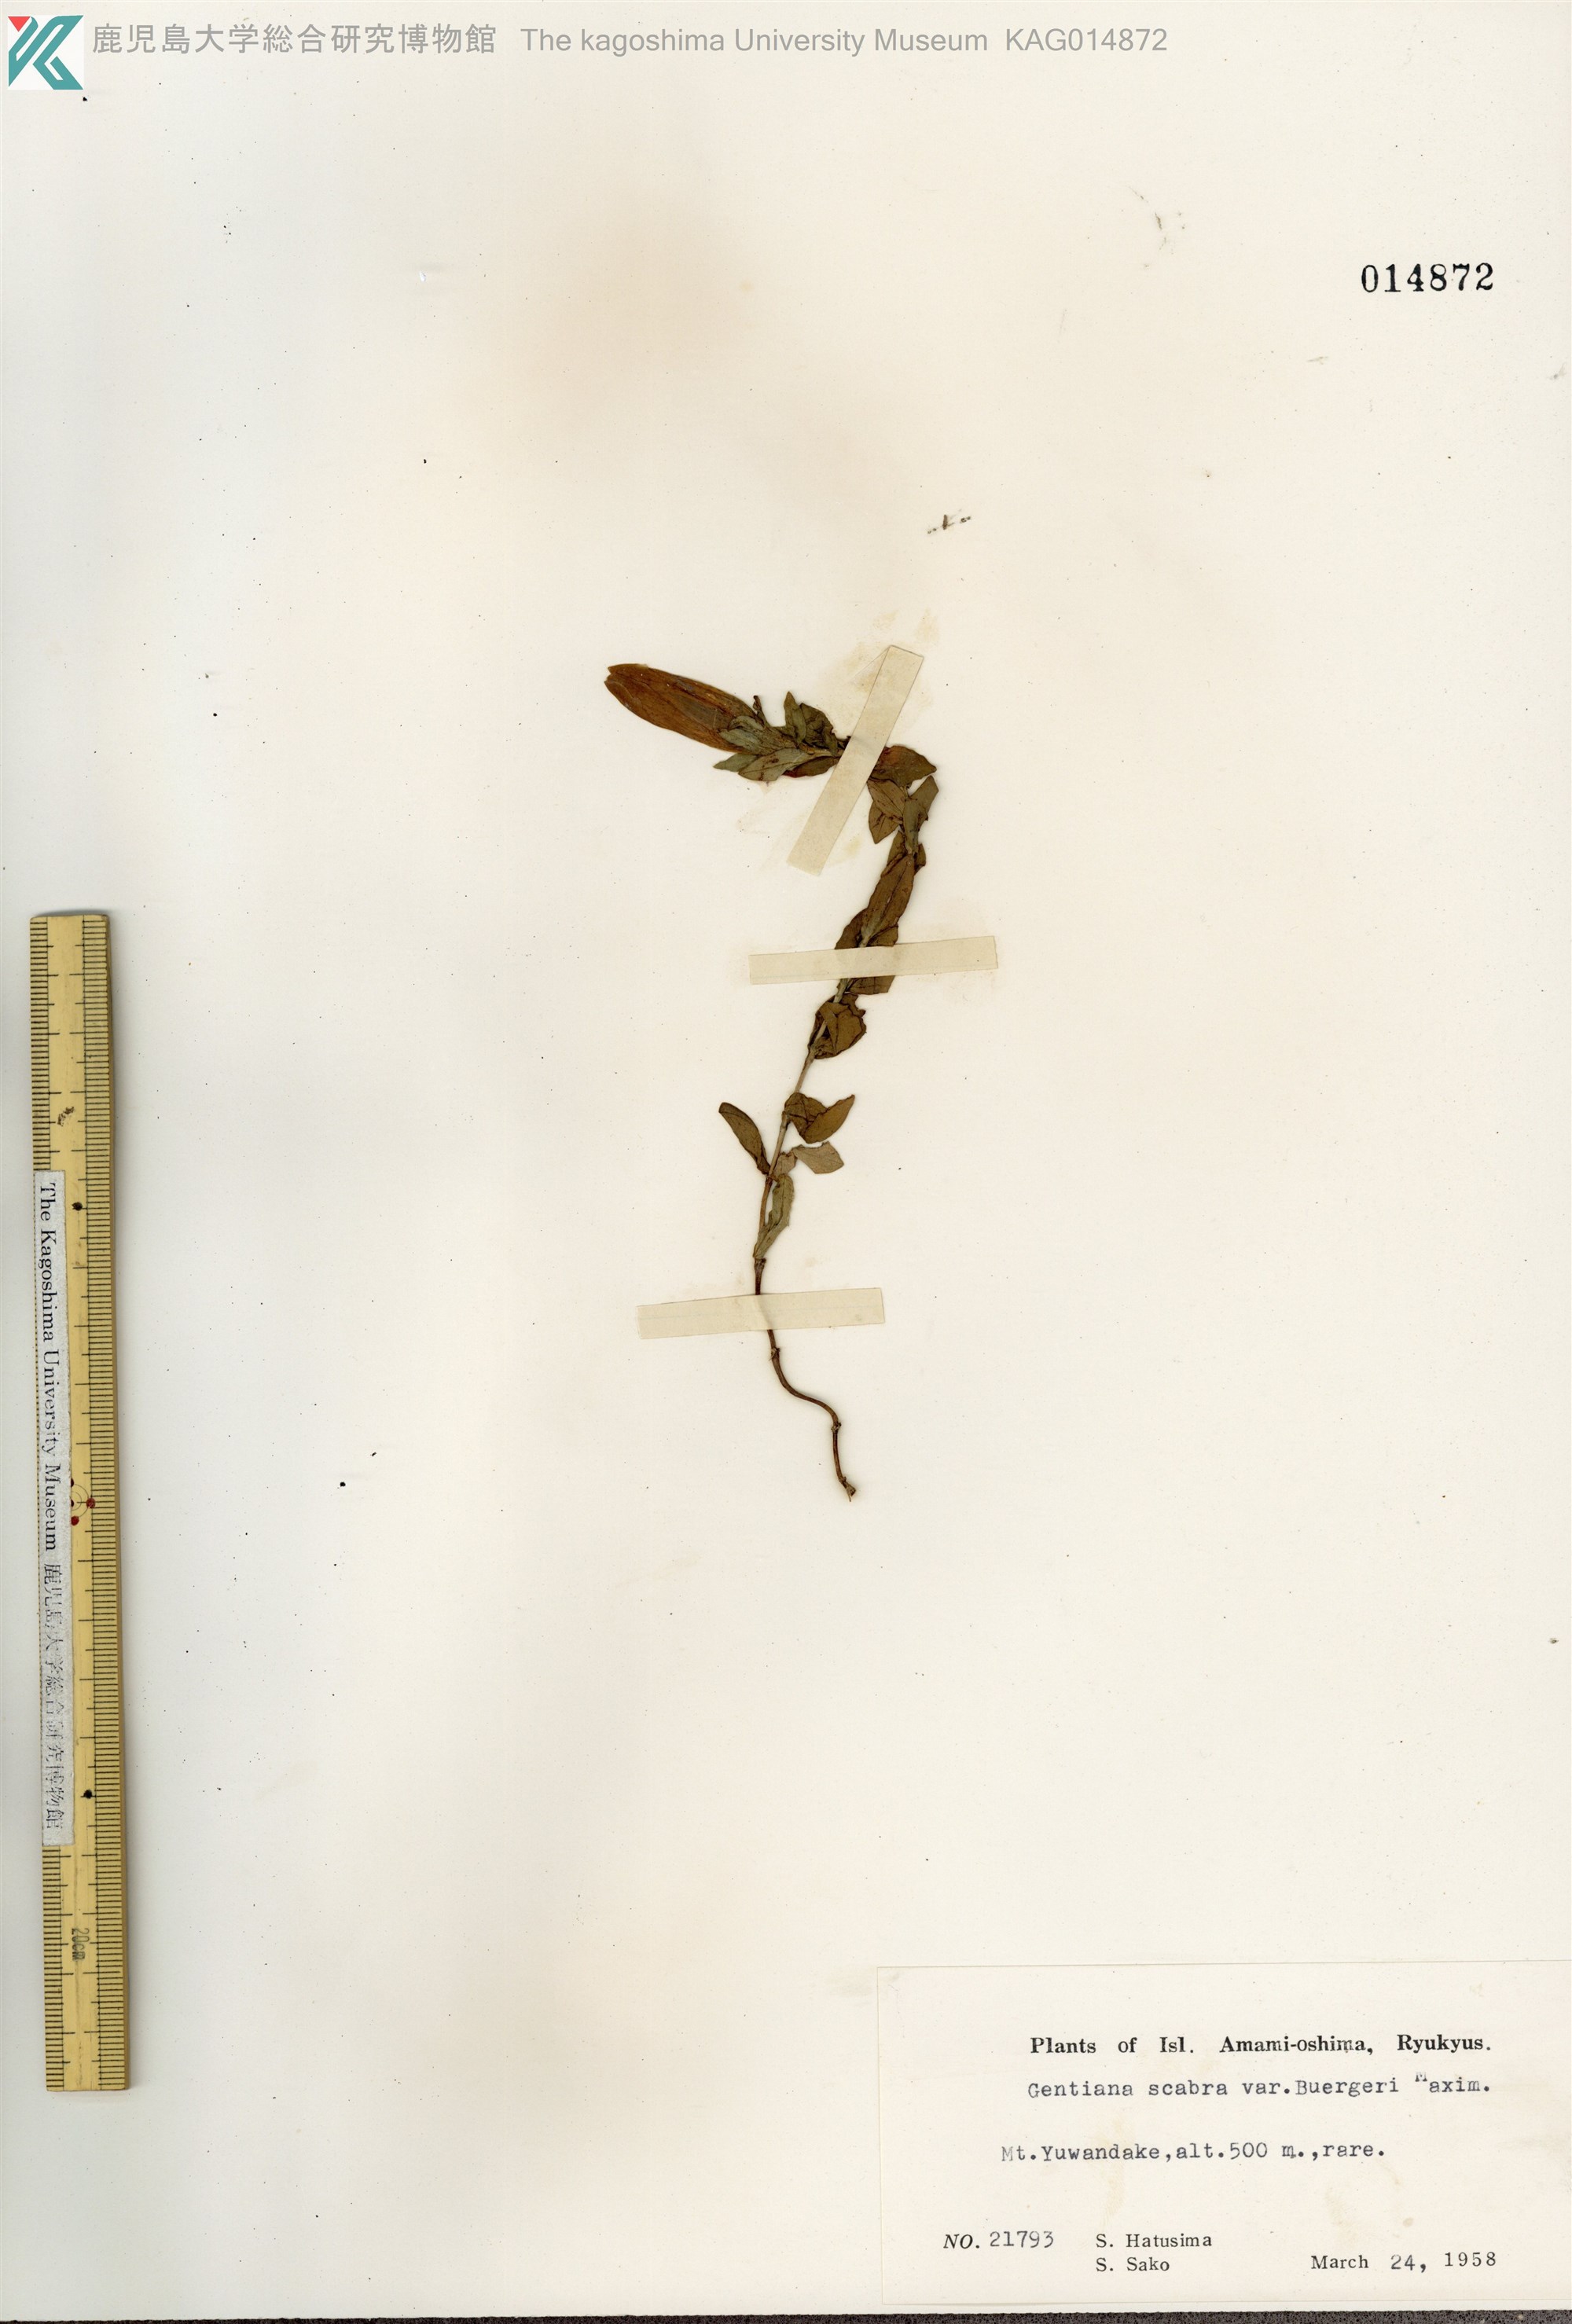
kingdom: Plantae
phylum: Tracheophyta
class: Magnoliopsida
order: Gentianales
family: Gentianaceae
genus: Gentiana
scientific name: Gentiana scabra
